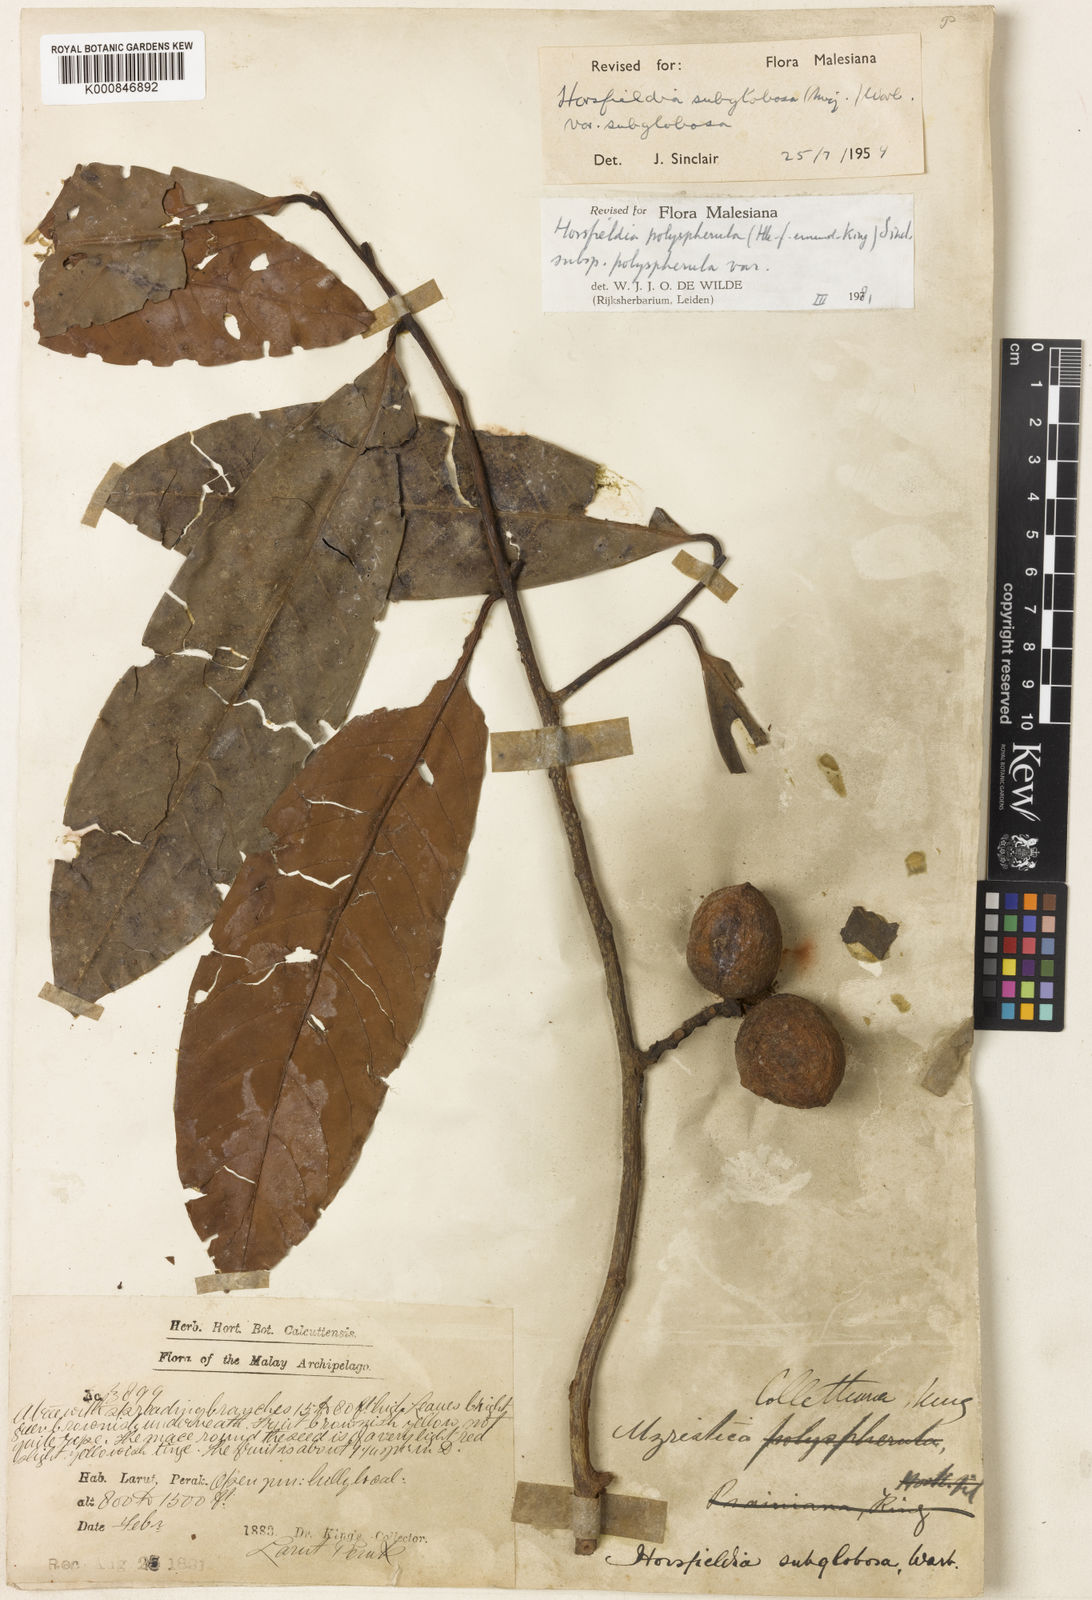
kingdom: Plantae
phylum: Tracheophyta
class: Magnoliopsida
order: Magnoliales
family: Myristicaceae
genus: Horsfieldia
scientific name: Horsfieldia polyspherula
